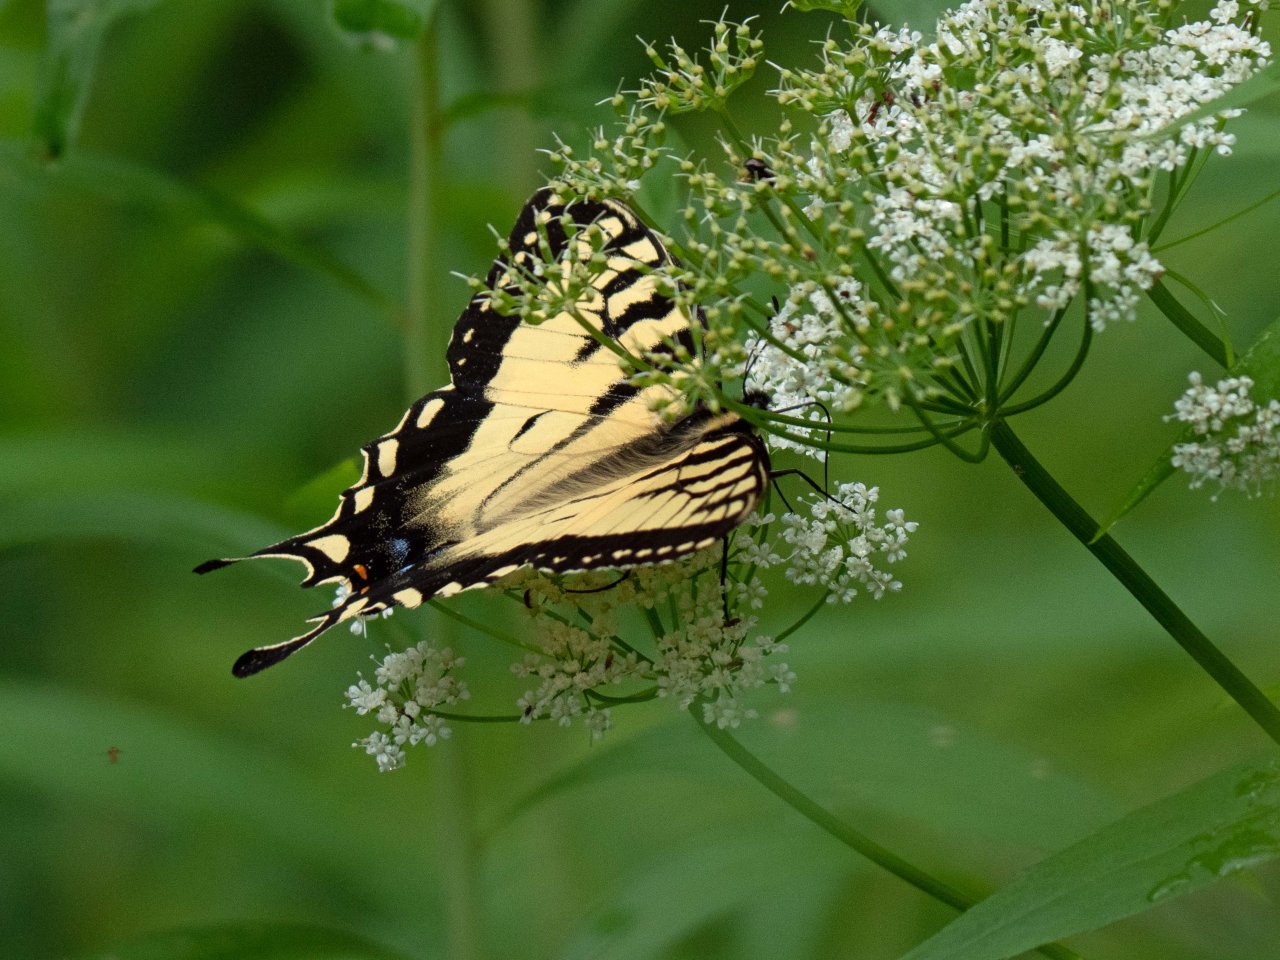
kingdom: Animalia
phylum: Arthropoda
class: Insecta
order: Lepidoptera
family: Papilionidae
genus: Pterourus
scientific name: Pterourus
